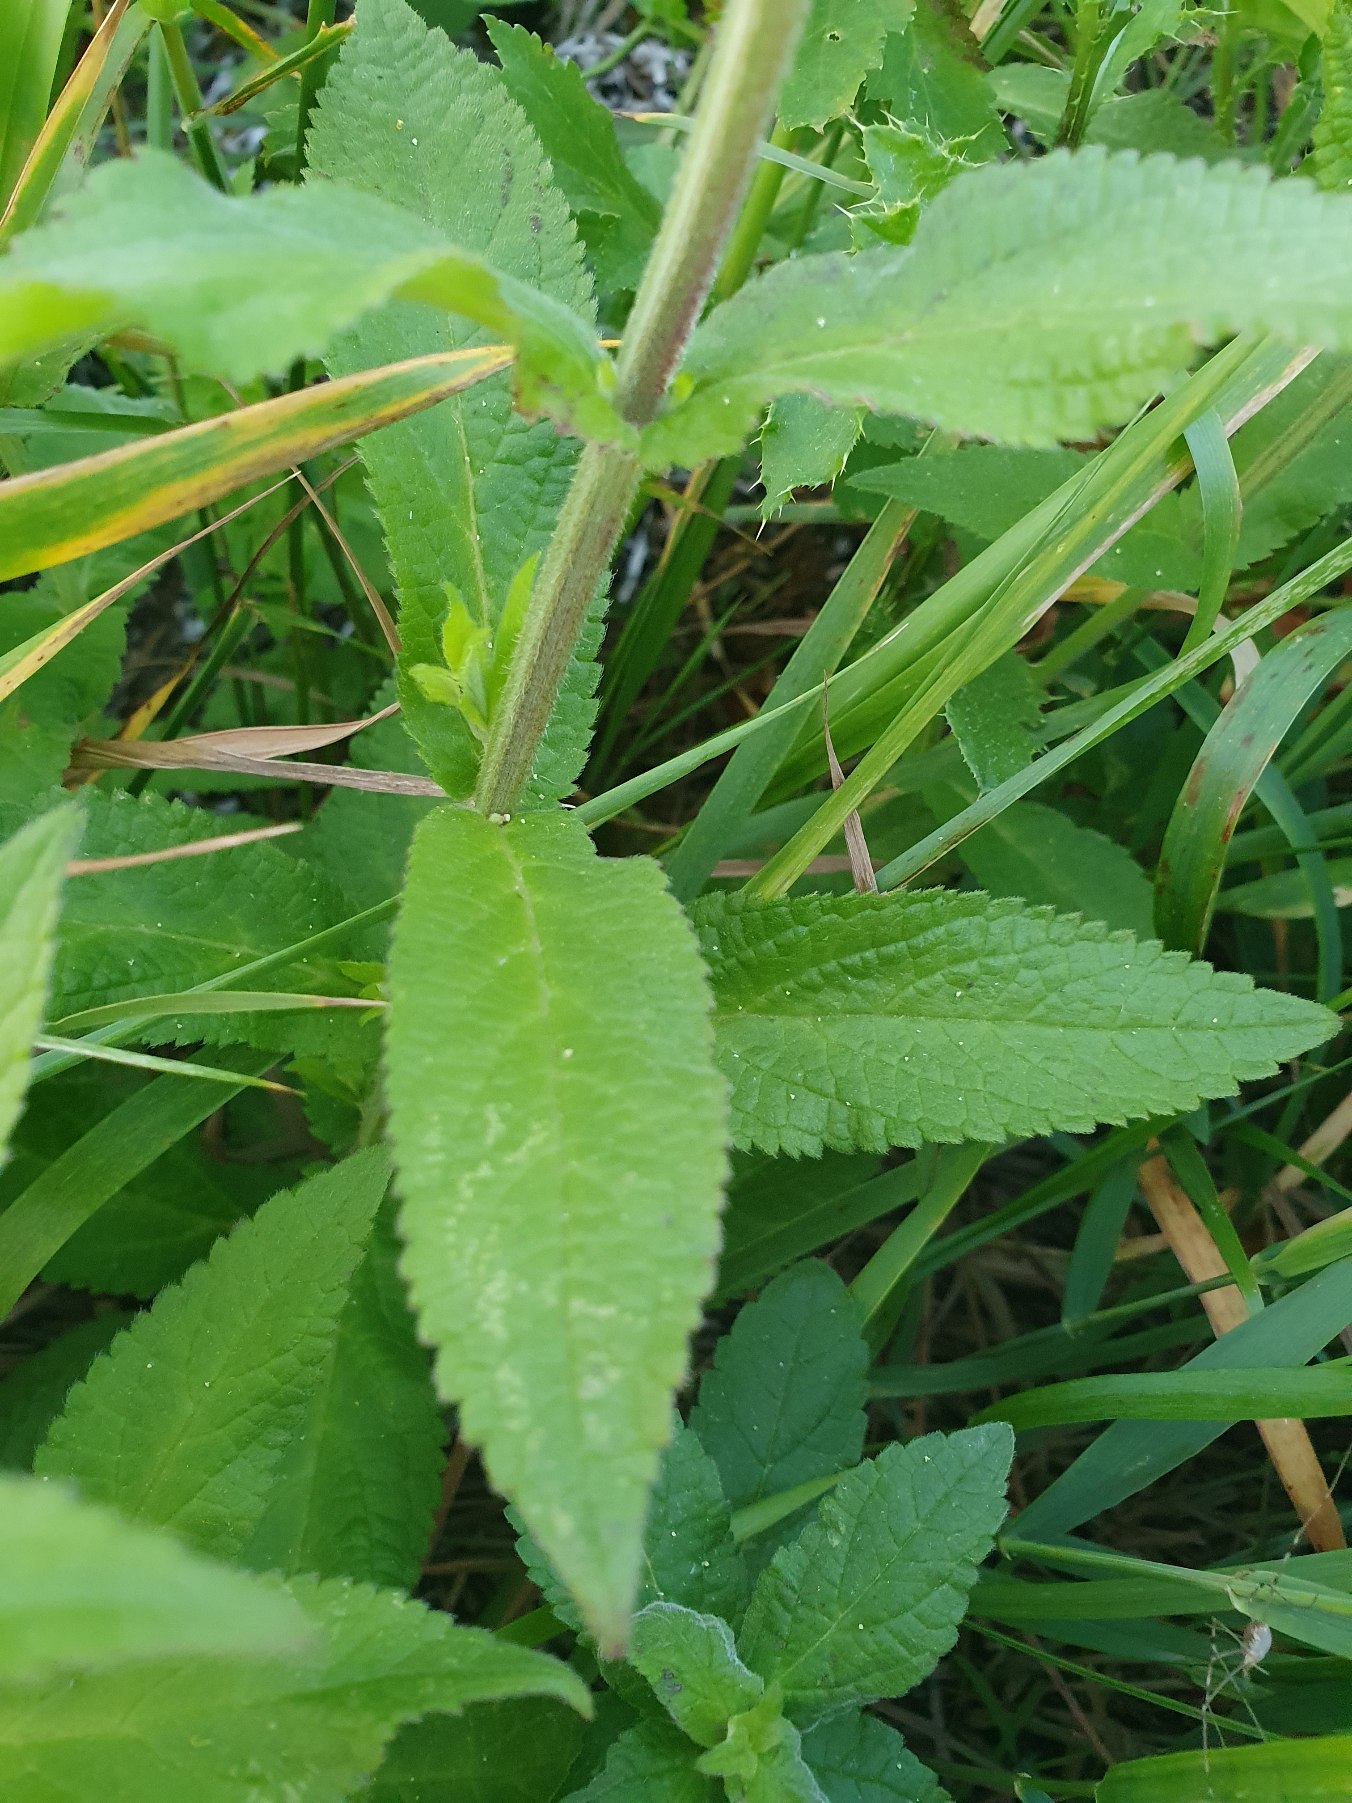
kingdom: Plantae
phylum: Tracheophyta
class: Magnoliopsida
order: Lamiales
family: Lamiaceae
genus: Stachys
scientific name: Stachys palustris
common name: Kær-galtetand
